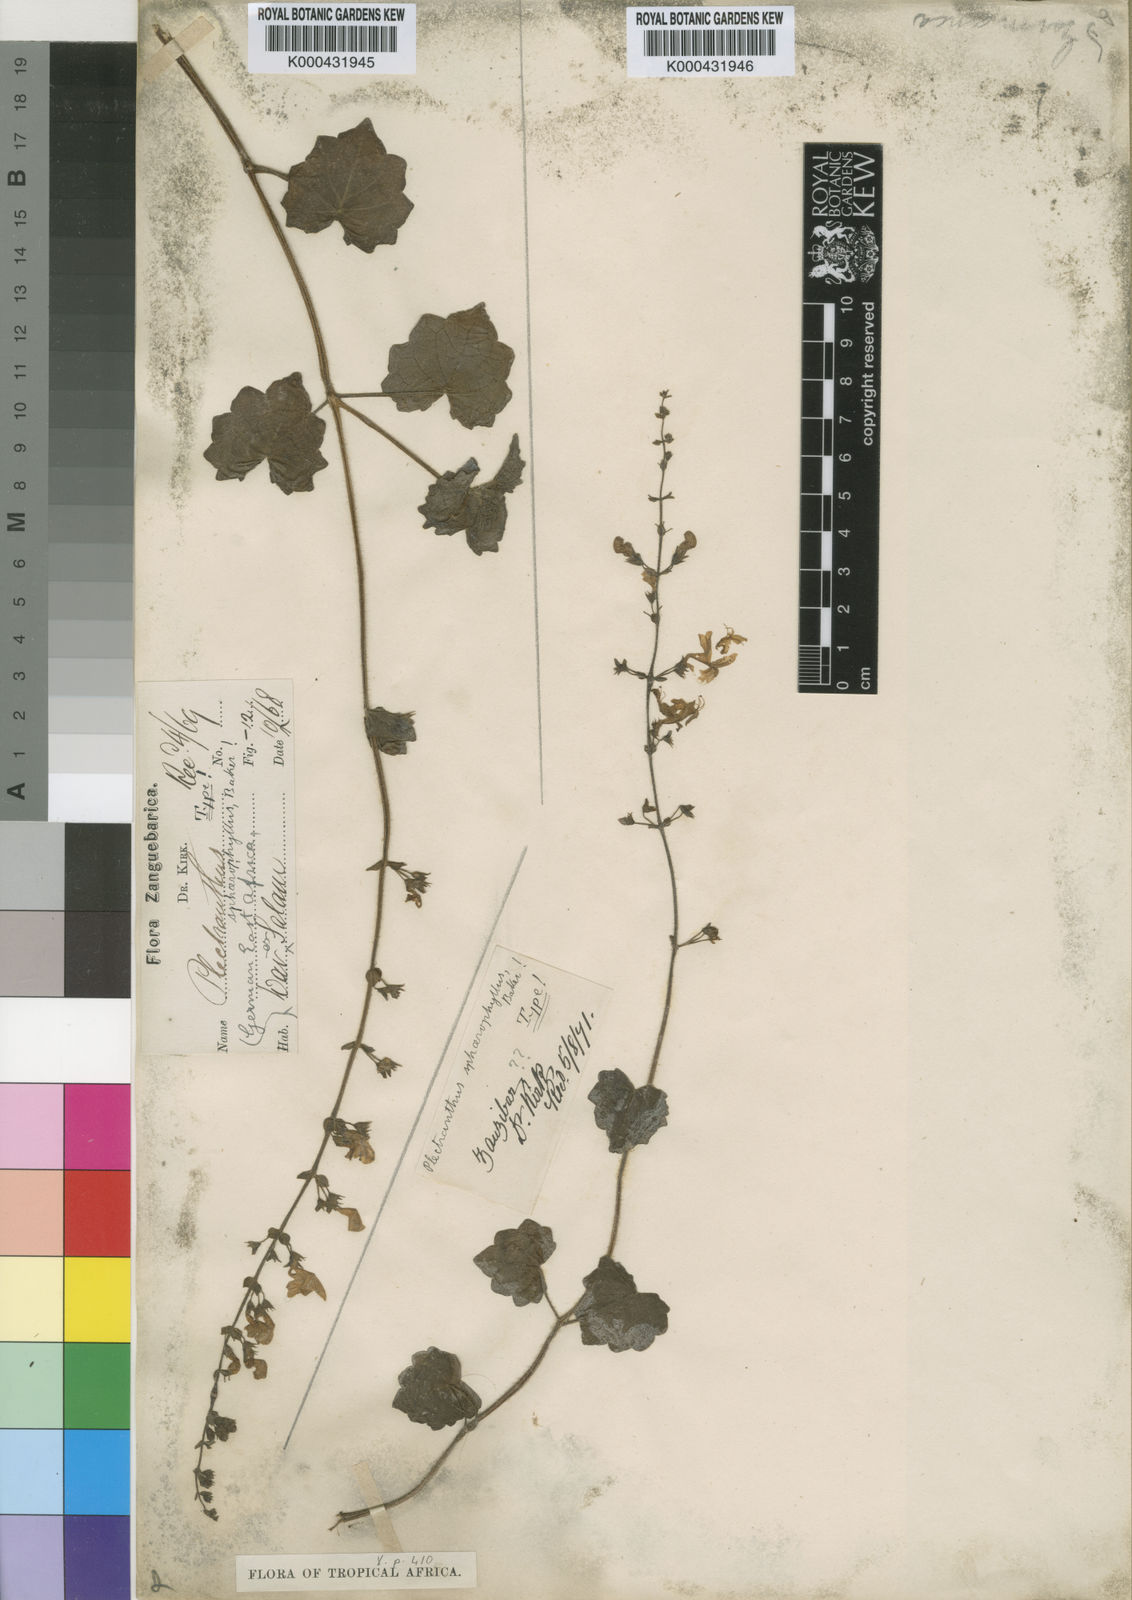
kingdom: Plantae
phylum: Tracheophyta
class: Magnoliopsida
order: Lamiales
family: Lamiaceae
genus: Plectranthus
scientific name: Plectranthus
